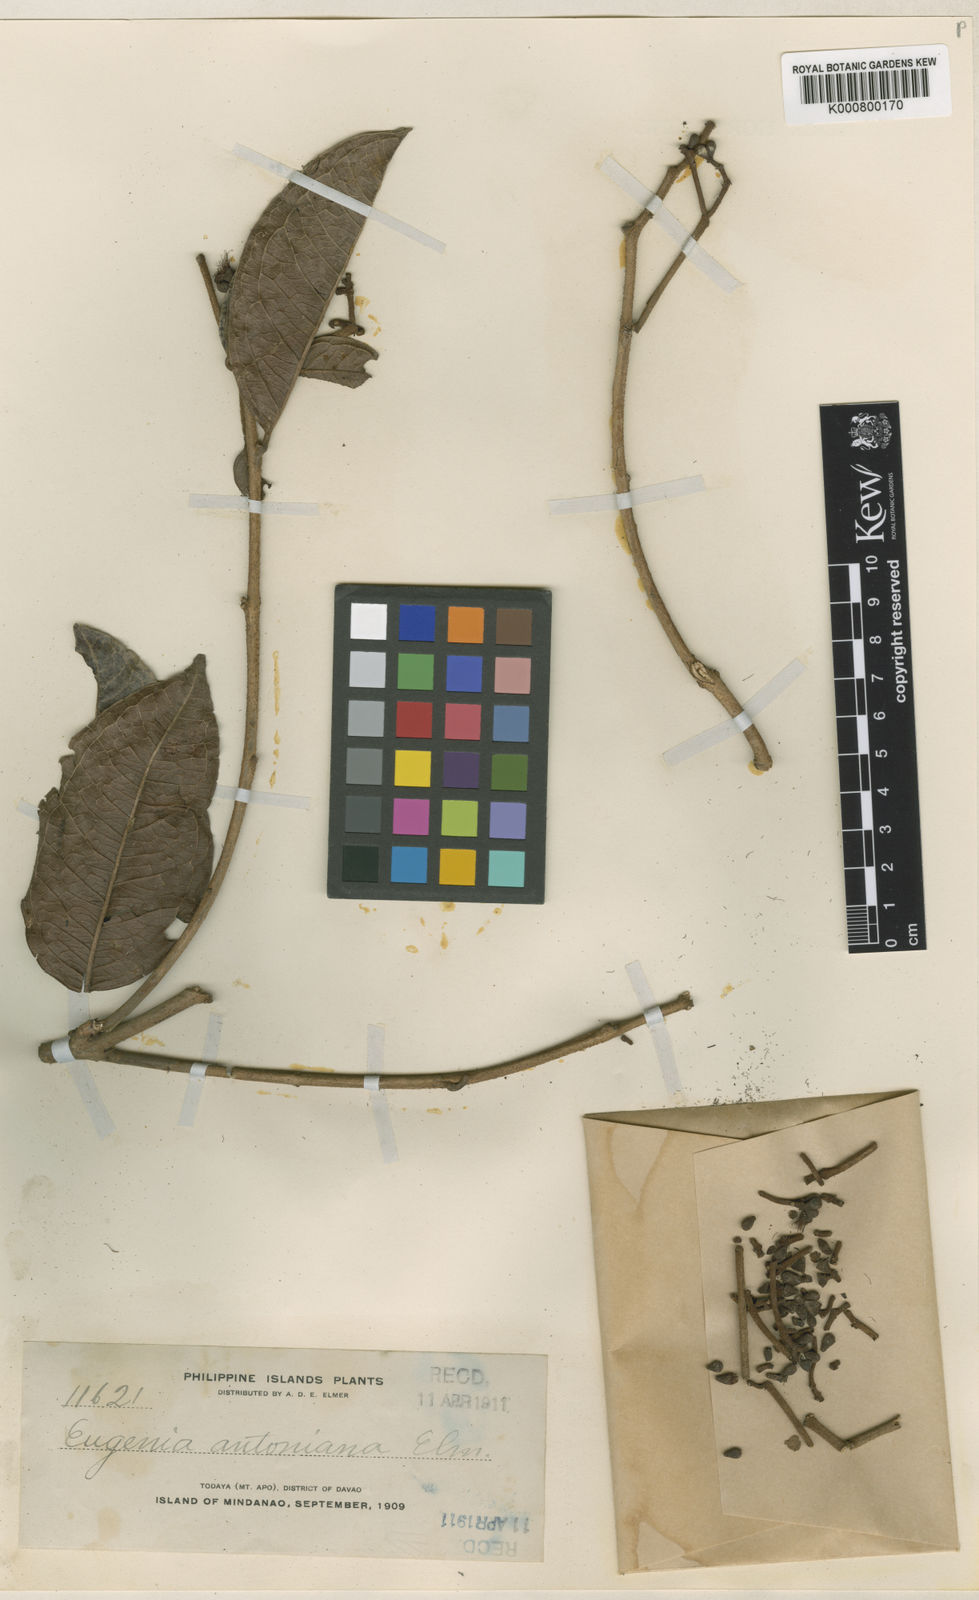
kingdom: Plantae
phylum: Tracheophyta
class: Magnoliopsida
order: Myrtales
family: Myrtaceae
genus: Syzygium
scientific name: Syzygium antonianum
